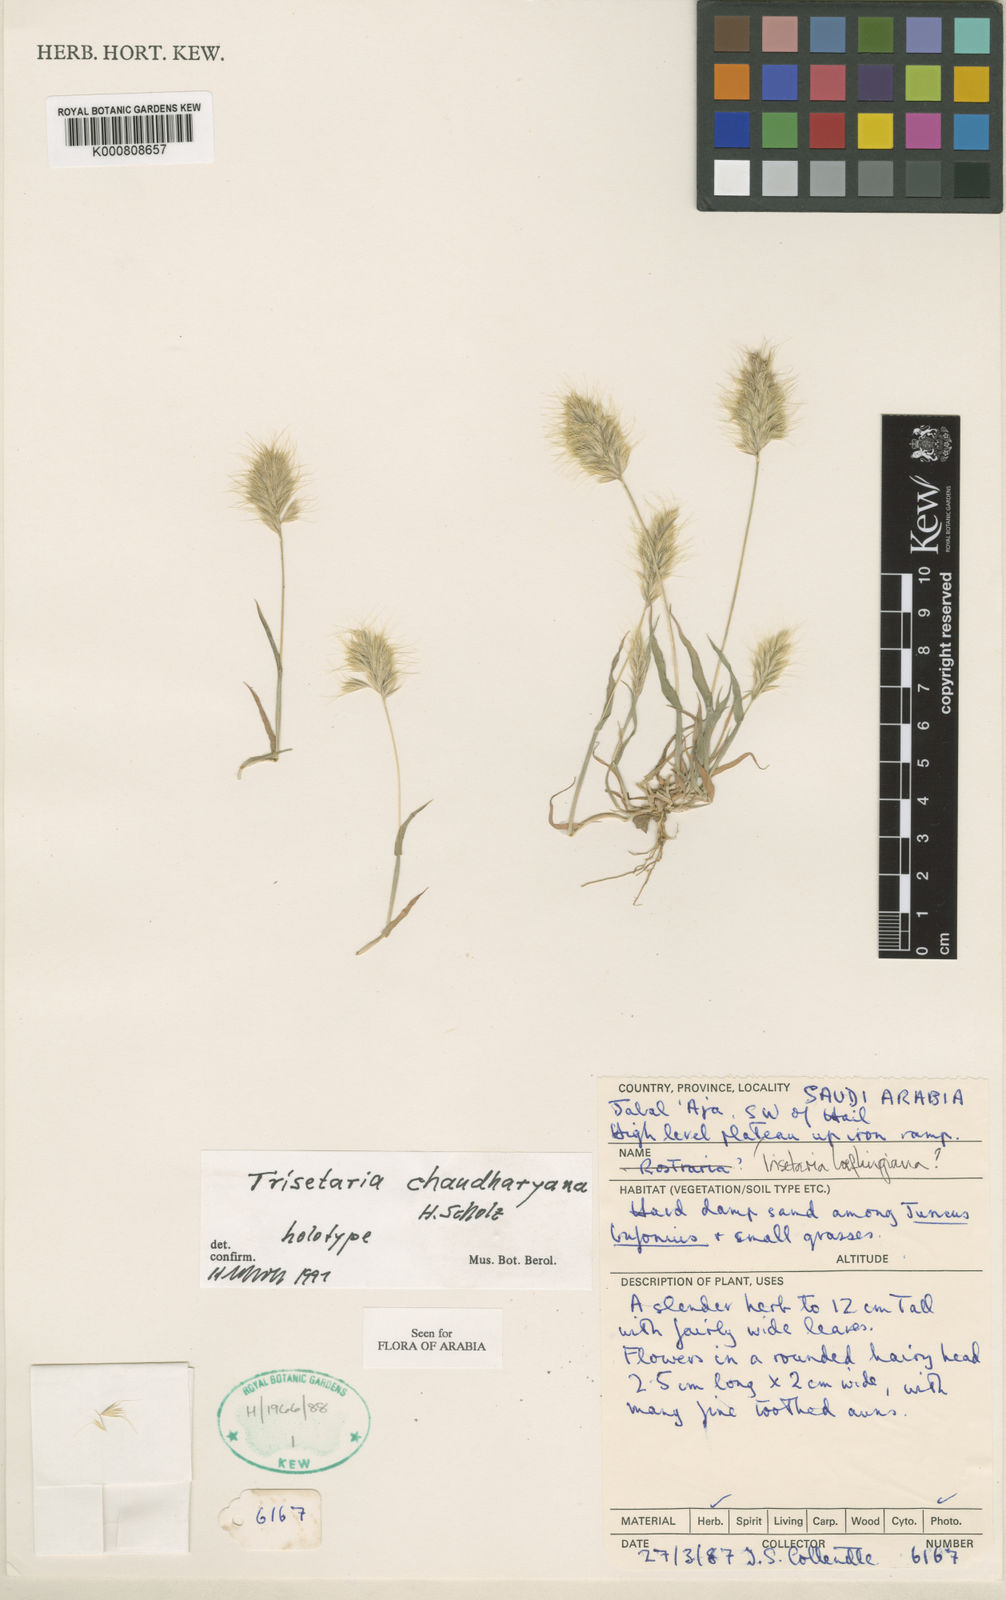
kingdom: Plantae
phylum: Tracheophyta
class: Liliopsida
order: Poales
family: Poaceae
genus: Trisetaria
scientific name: Trisetaria chaudharyana
